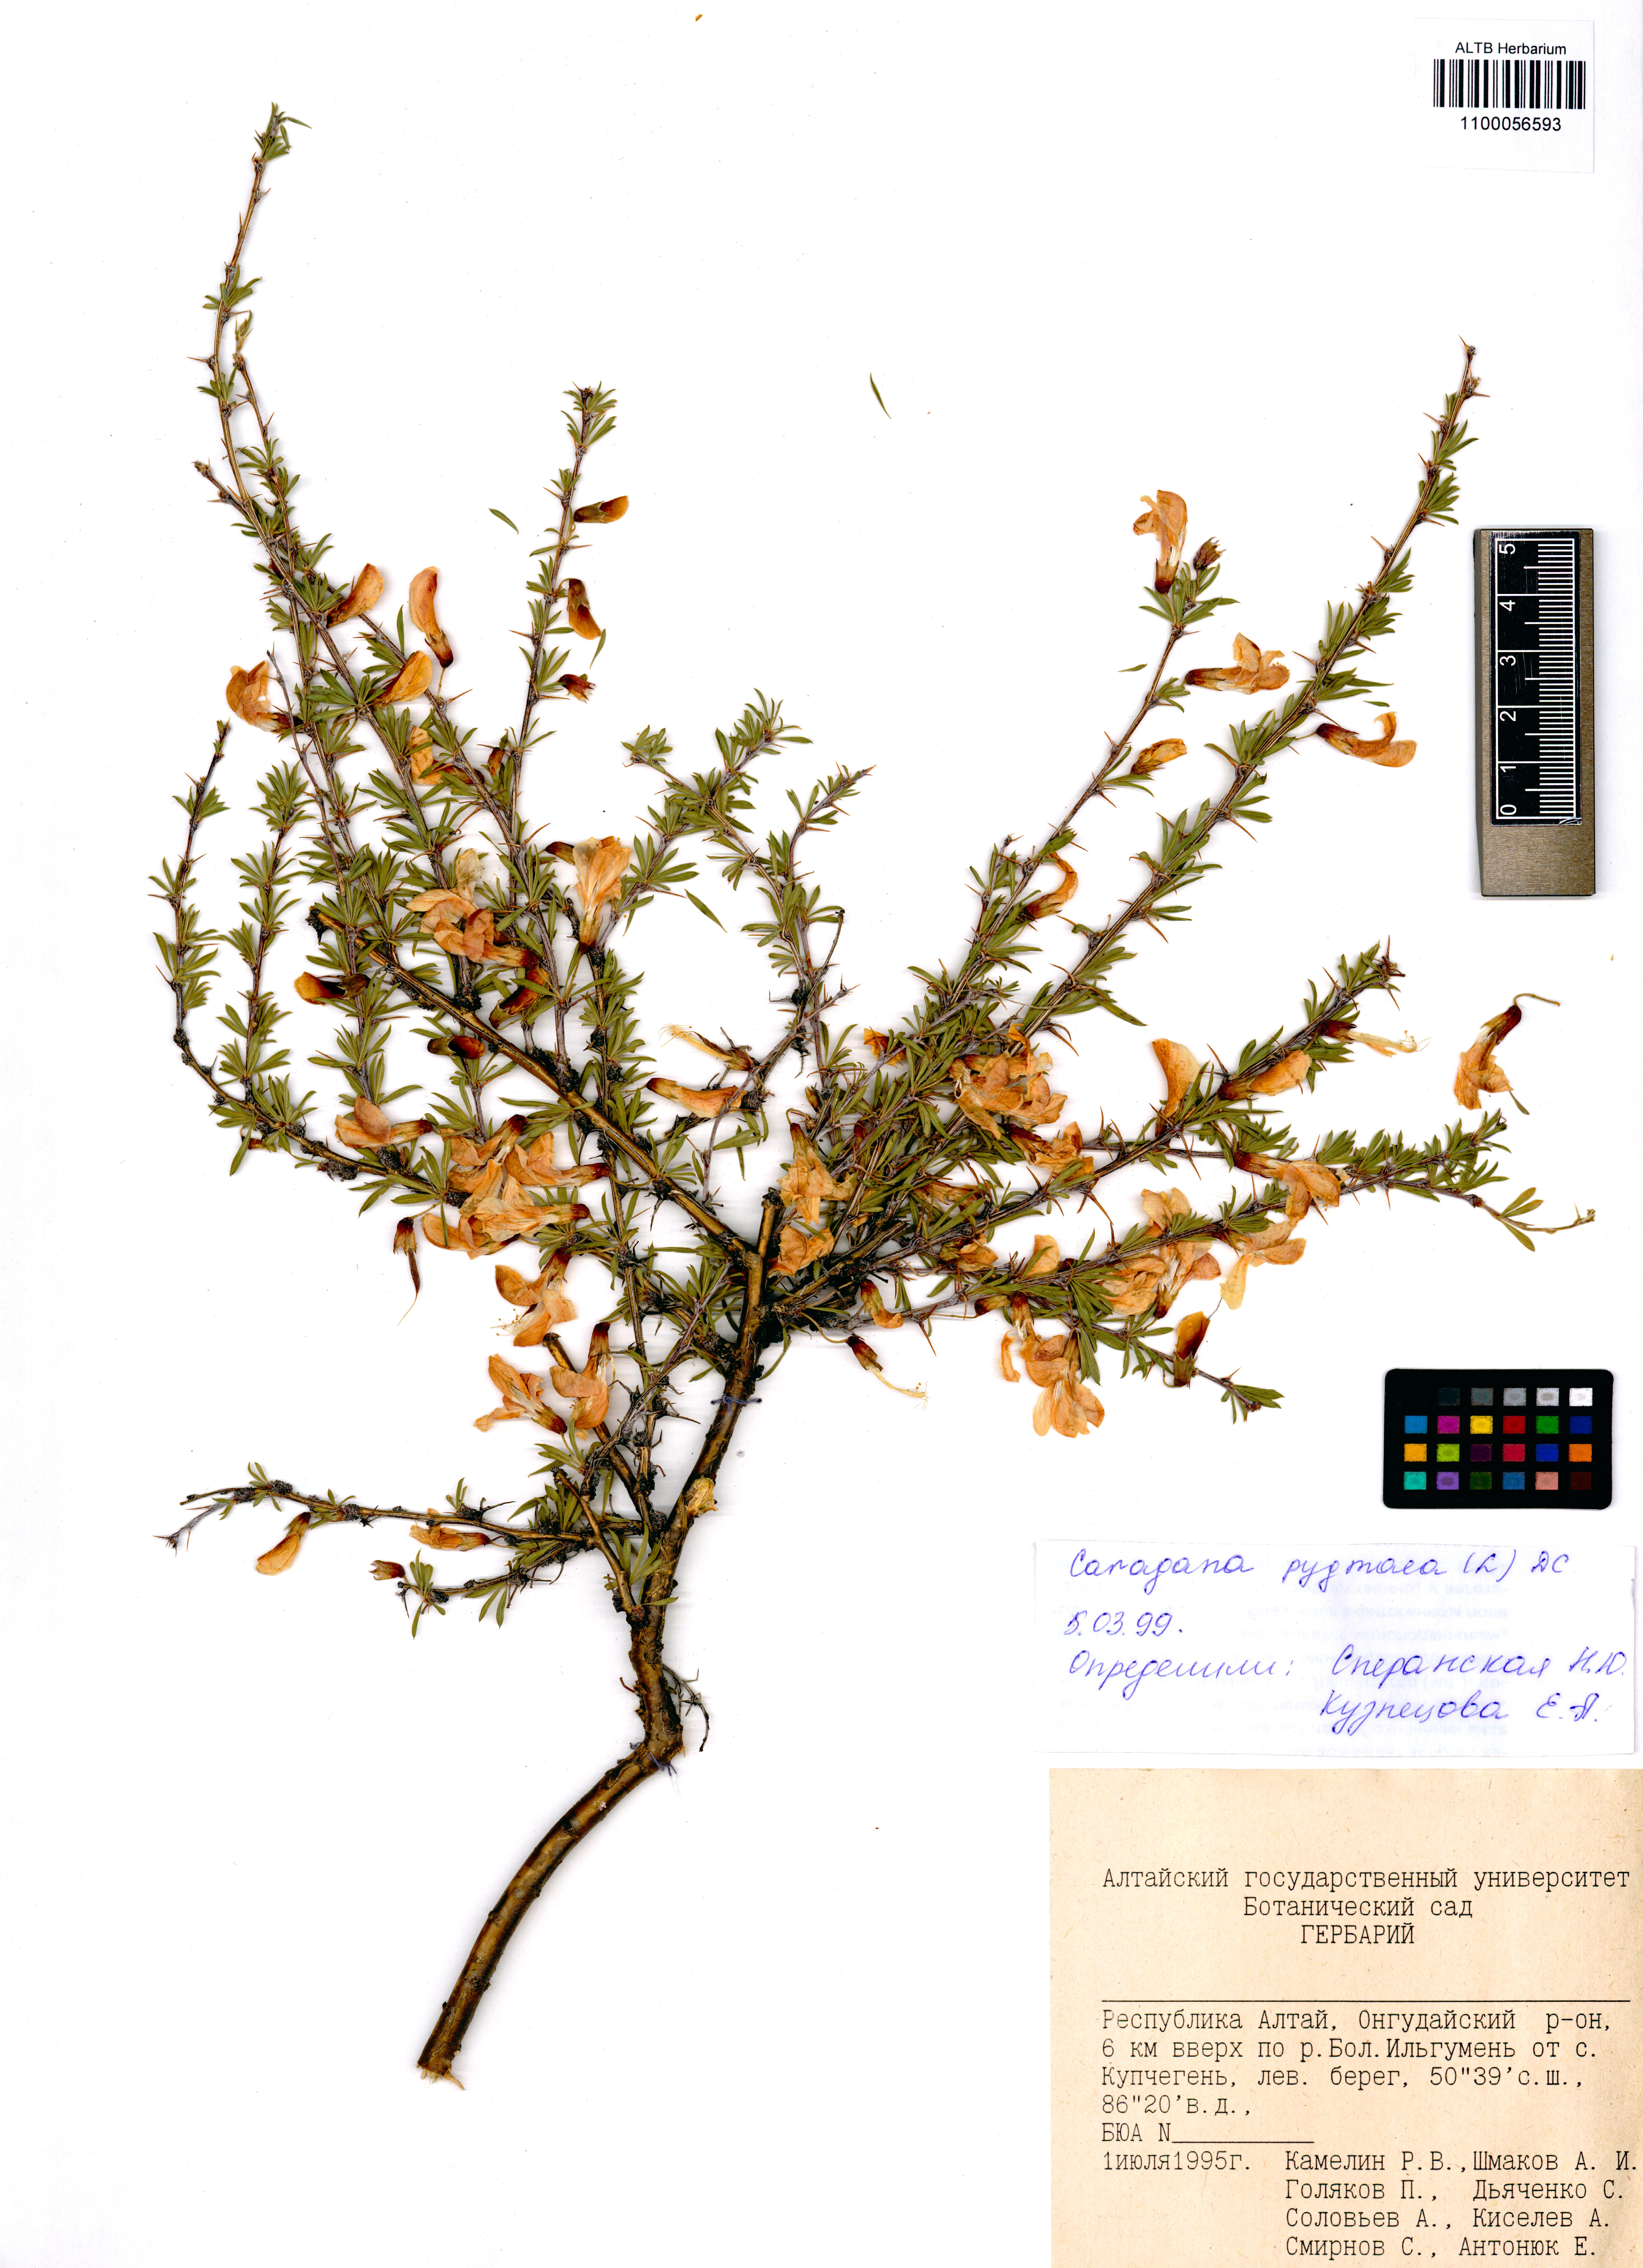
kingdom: Plantae
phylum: Tracheophyta
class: Magnoliopsida
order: Fabales
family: Fabaceae
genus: Caragana
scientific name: Caragana pygmaea
